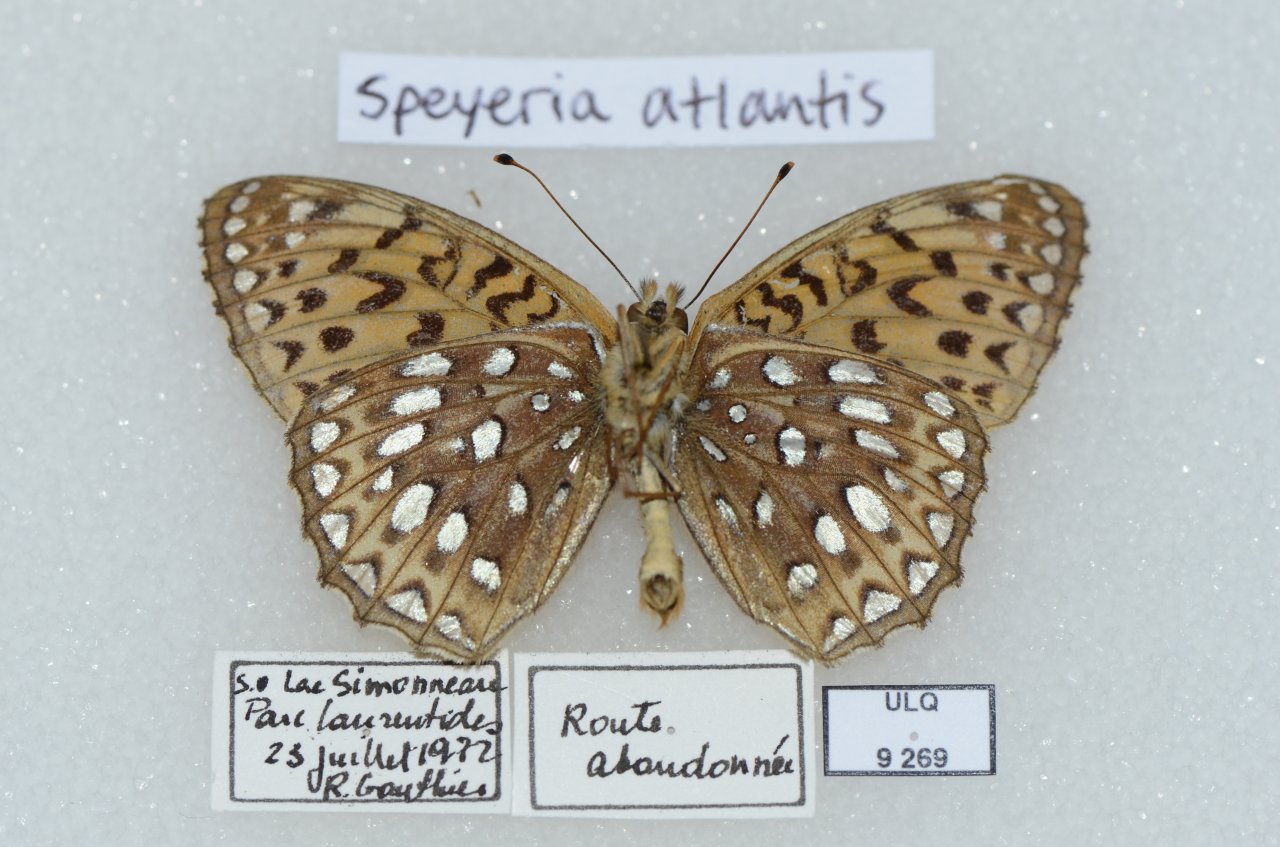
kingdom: Animalia
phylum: Arthropoda
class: Insecta
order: Lepidoptera
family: Nymphalidae
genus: Speyeria
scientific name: Speyeria atlantis
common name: Atlantis Fritillary
